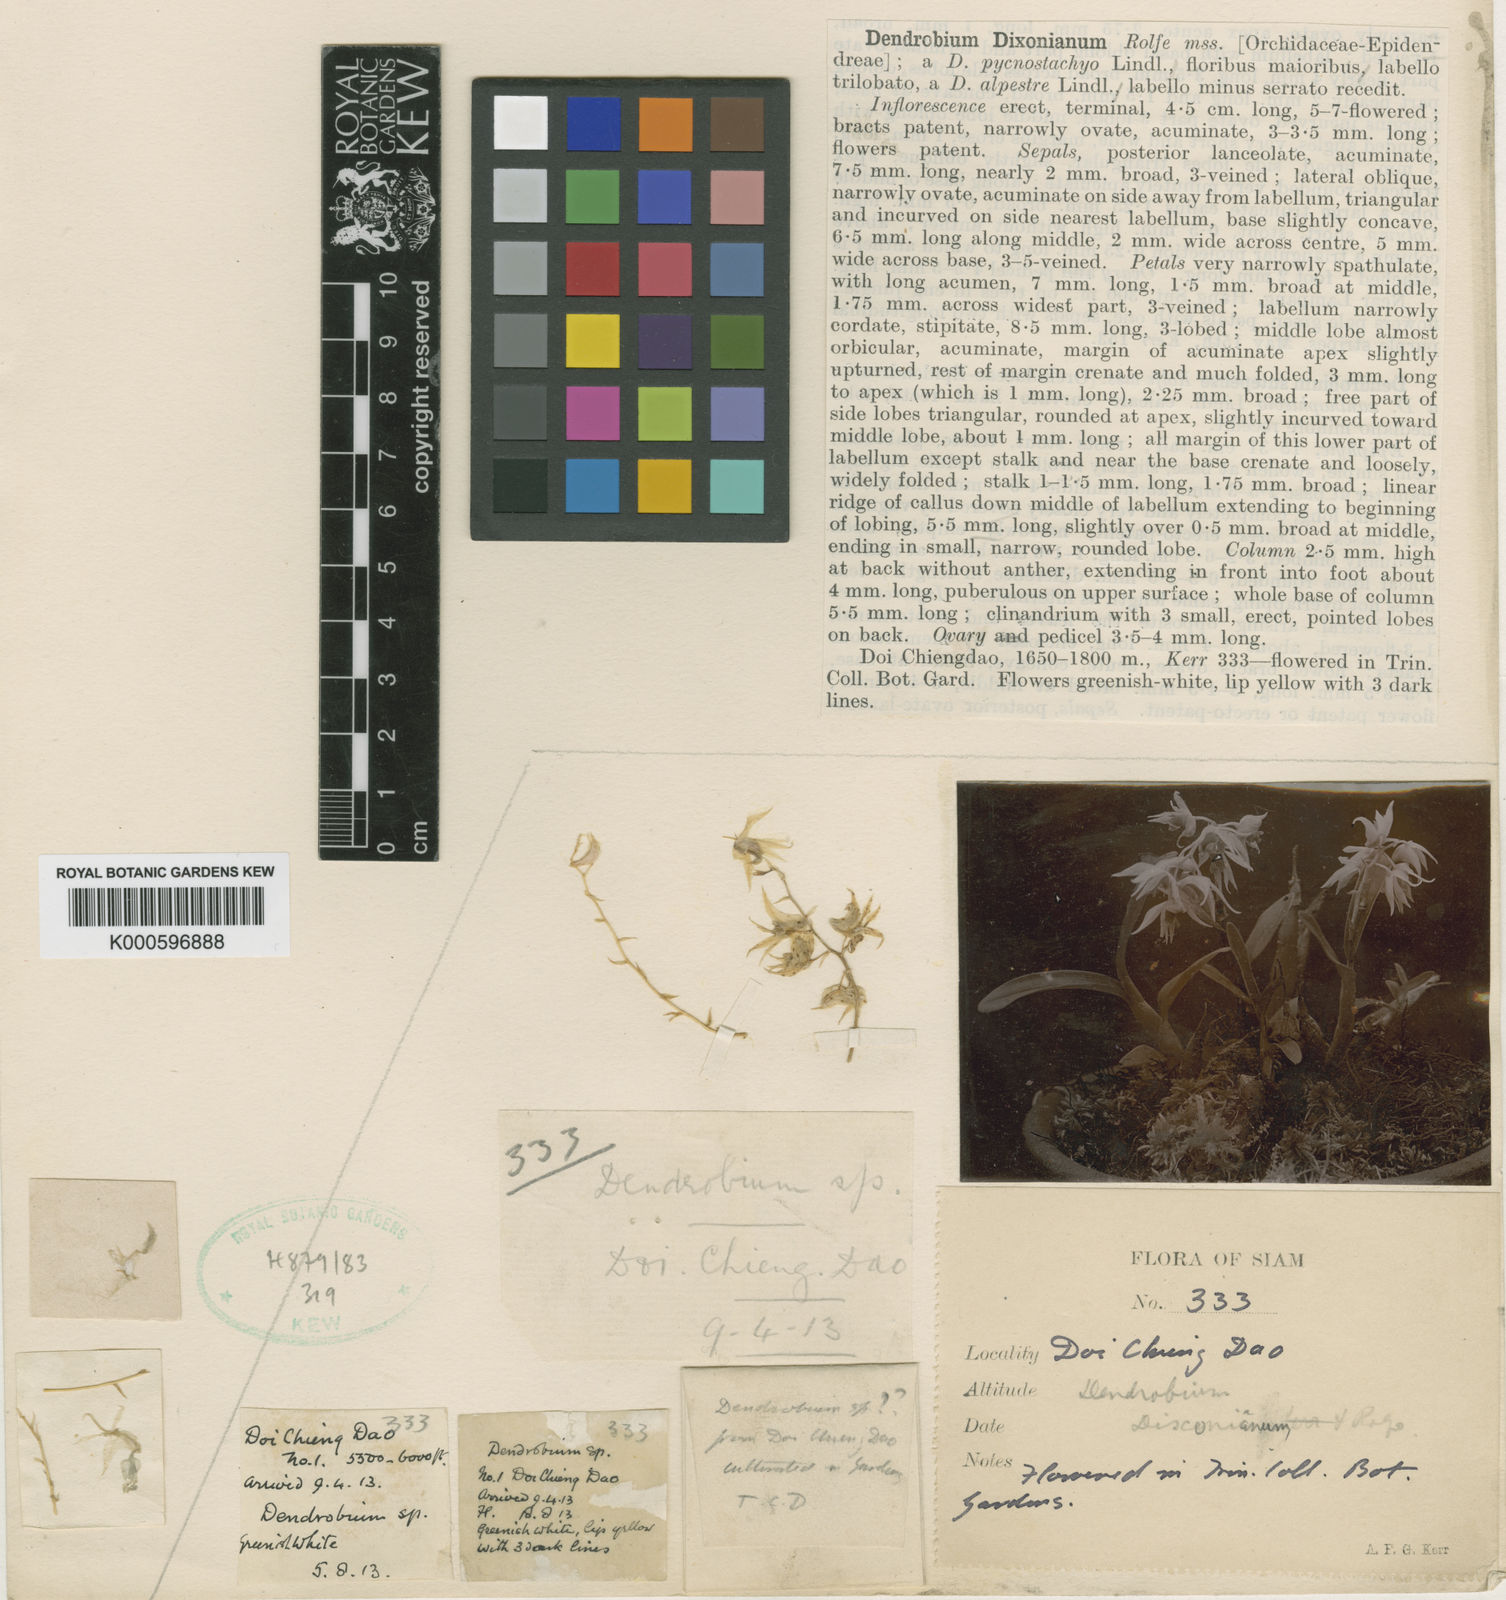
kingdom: Plantae
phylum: Tracheophyta
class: Liliopsida
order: Asparagales
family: Orchidaceae
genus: Dendrobium
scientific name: Dendrobium dixonianum
